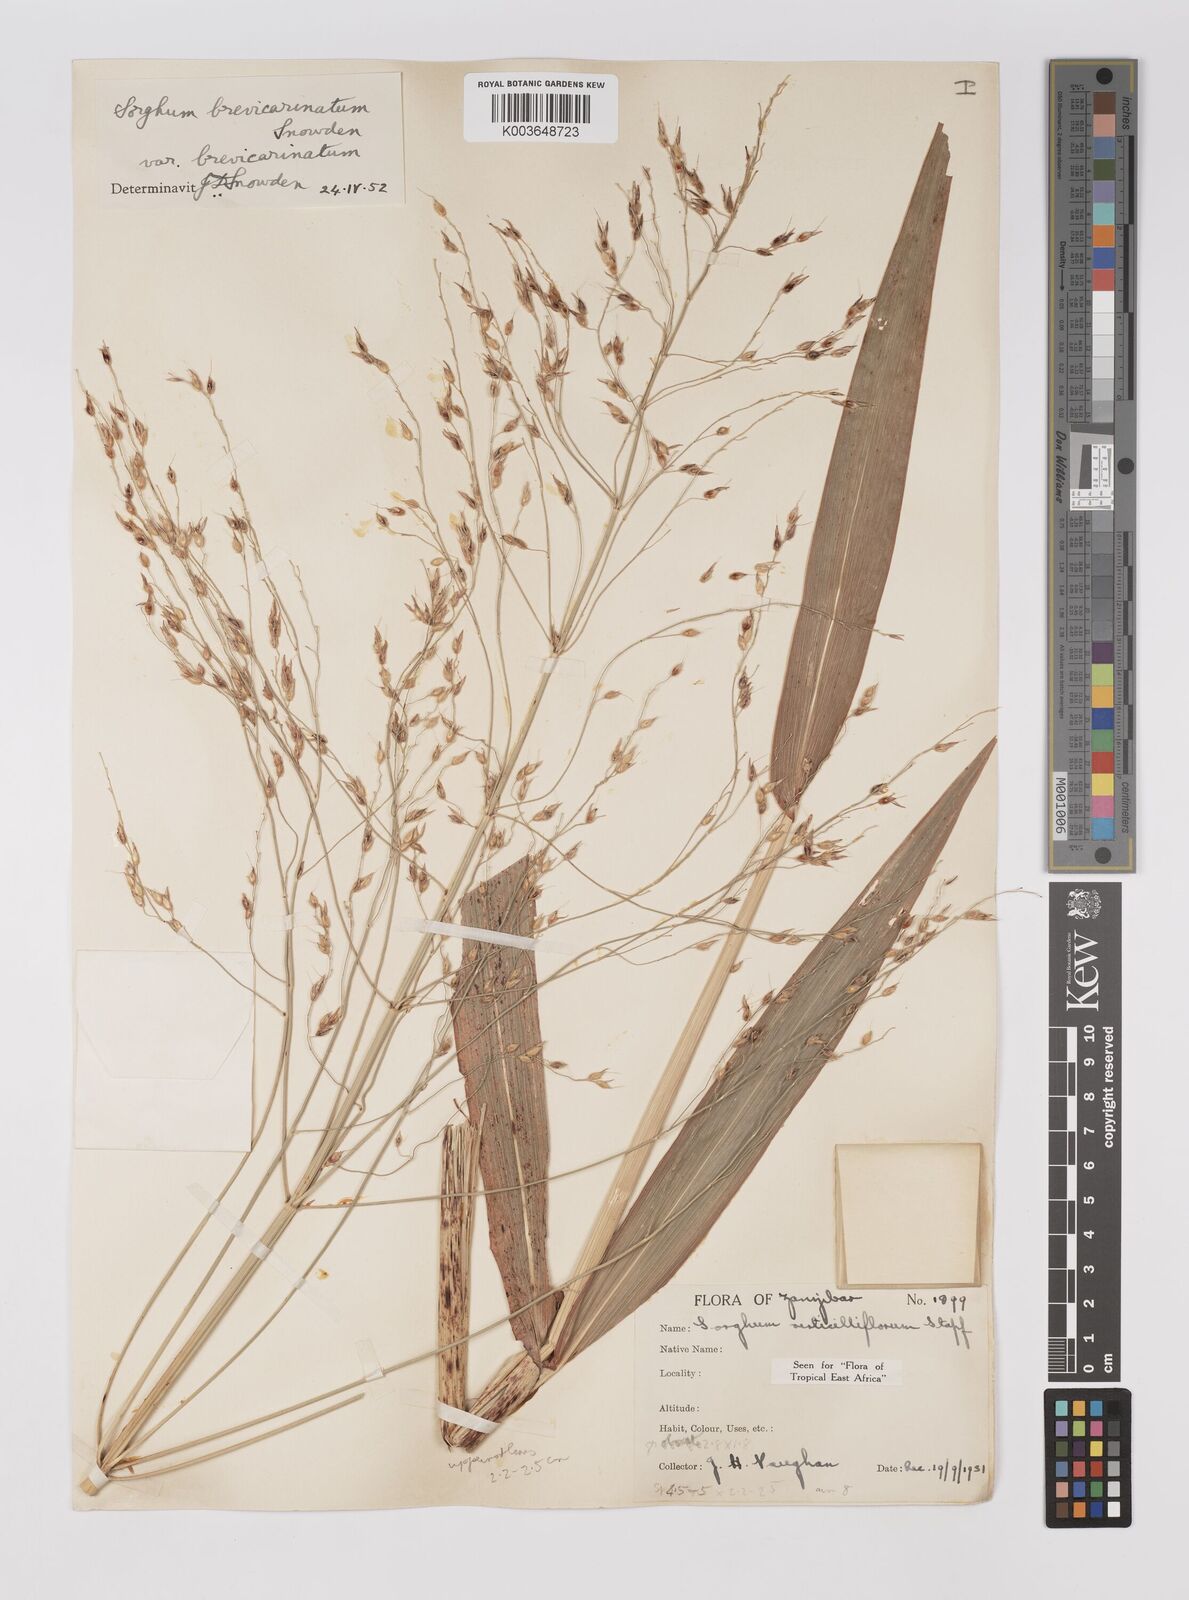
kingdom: Plantae
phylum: Tracheophyta
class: Liliopsida
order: Poales
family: Poaceae
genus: Sorghum
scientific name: Sorghum arundinaceum
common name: Sorghum
